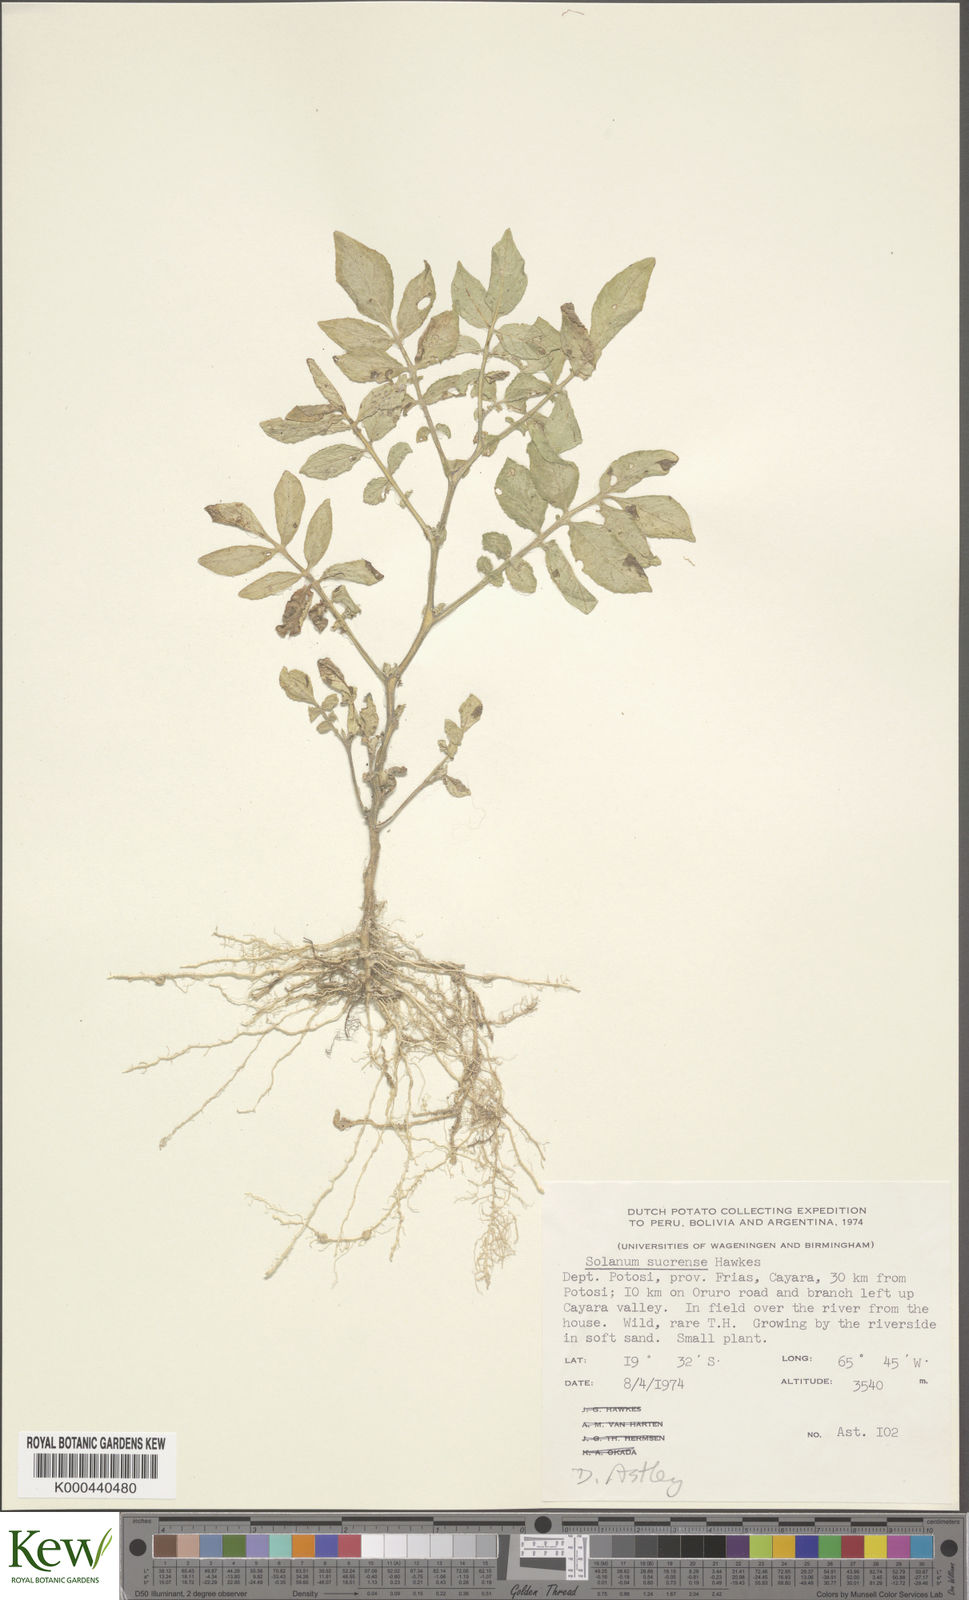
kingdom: Plantae
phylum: Tracheophyta
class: Magnoliopsida
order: Solanales
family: Solanaceae
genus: Solanum
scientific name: Solanum brevicaule
